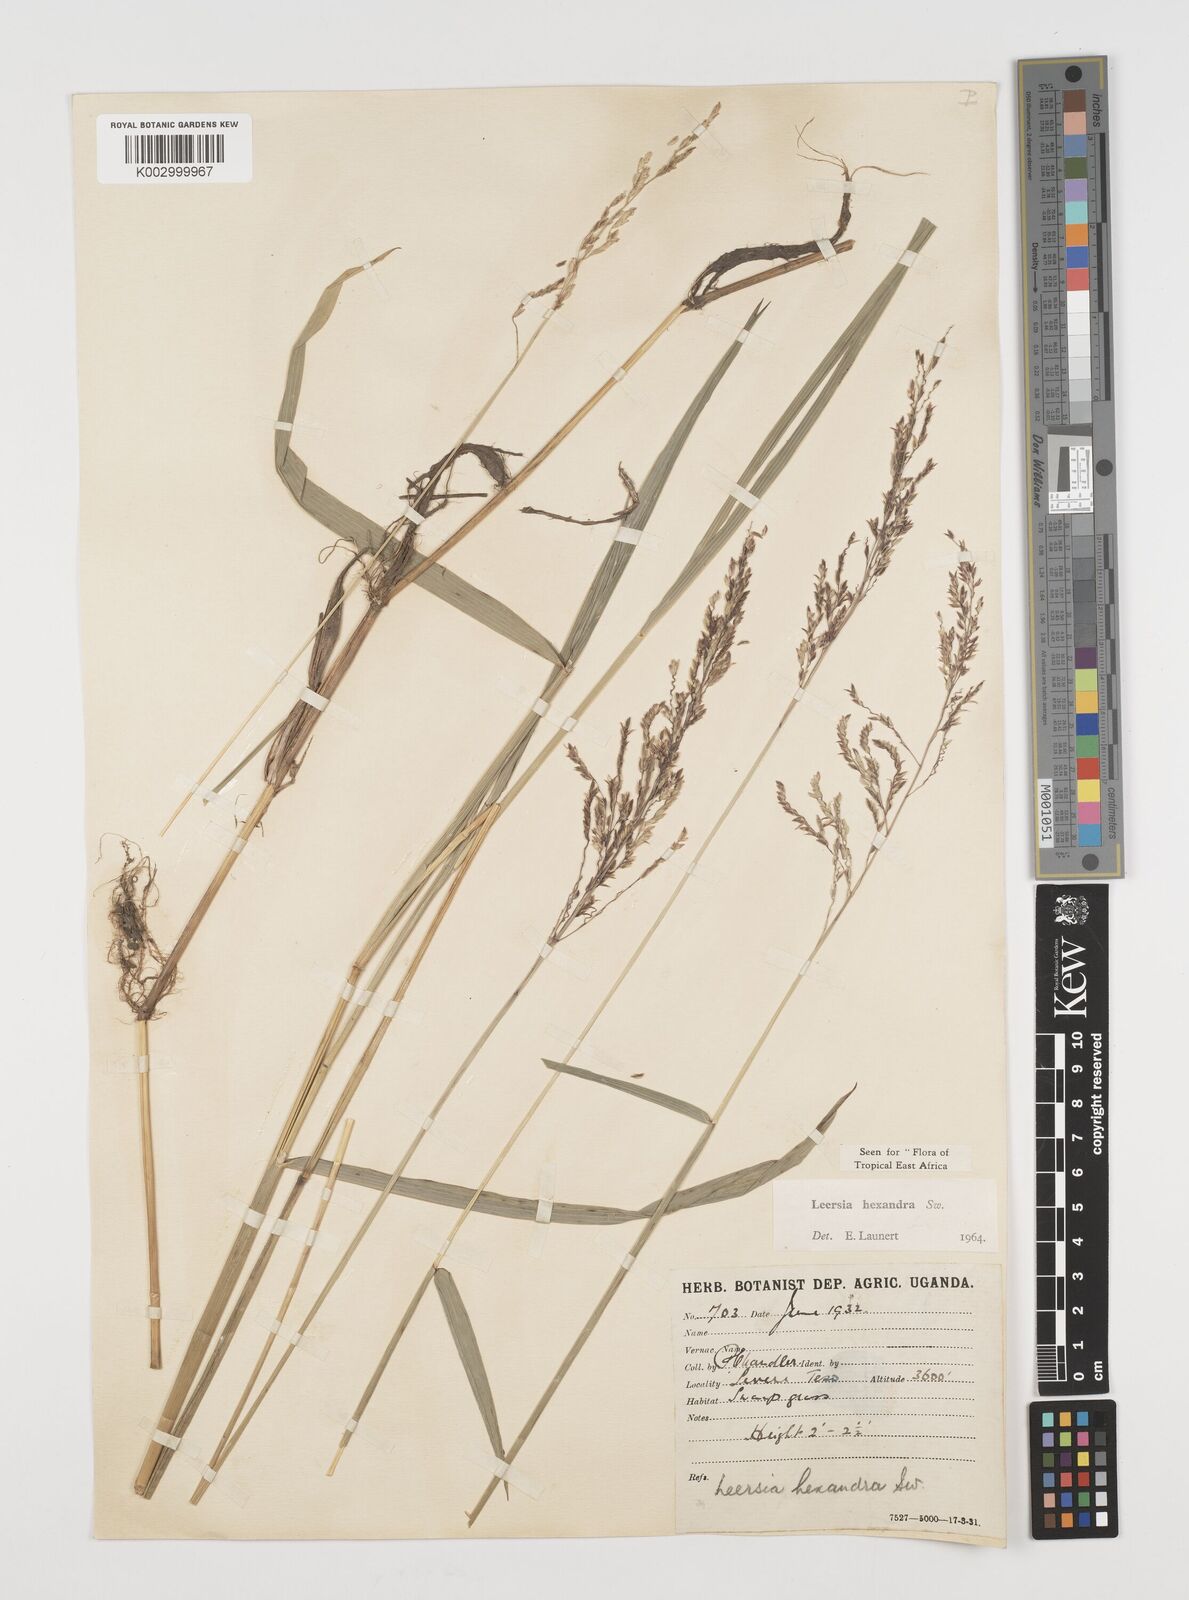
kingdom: Plantae
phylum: Tracheophyta
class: Liliopsida
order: Poales
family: Poaceae
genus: Leersia
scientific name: Leersia hexandra
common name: Southern cut grass
